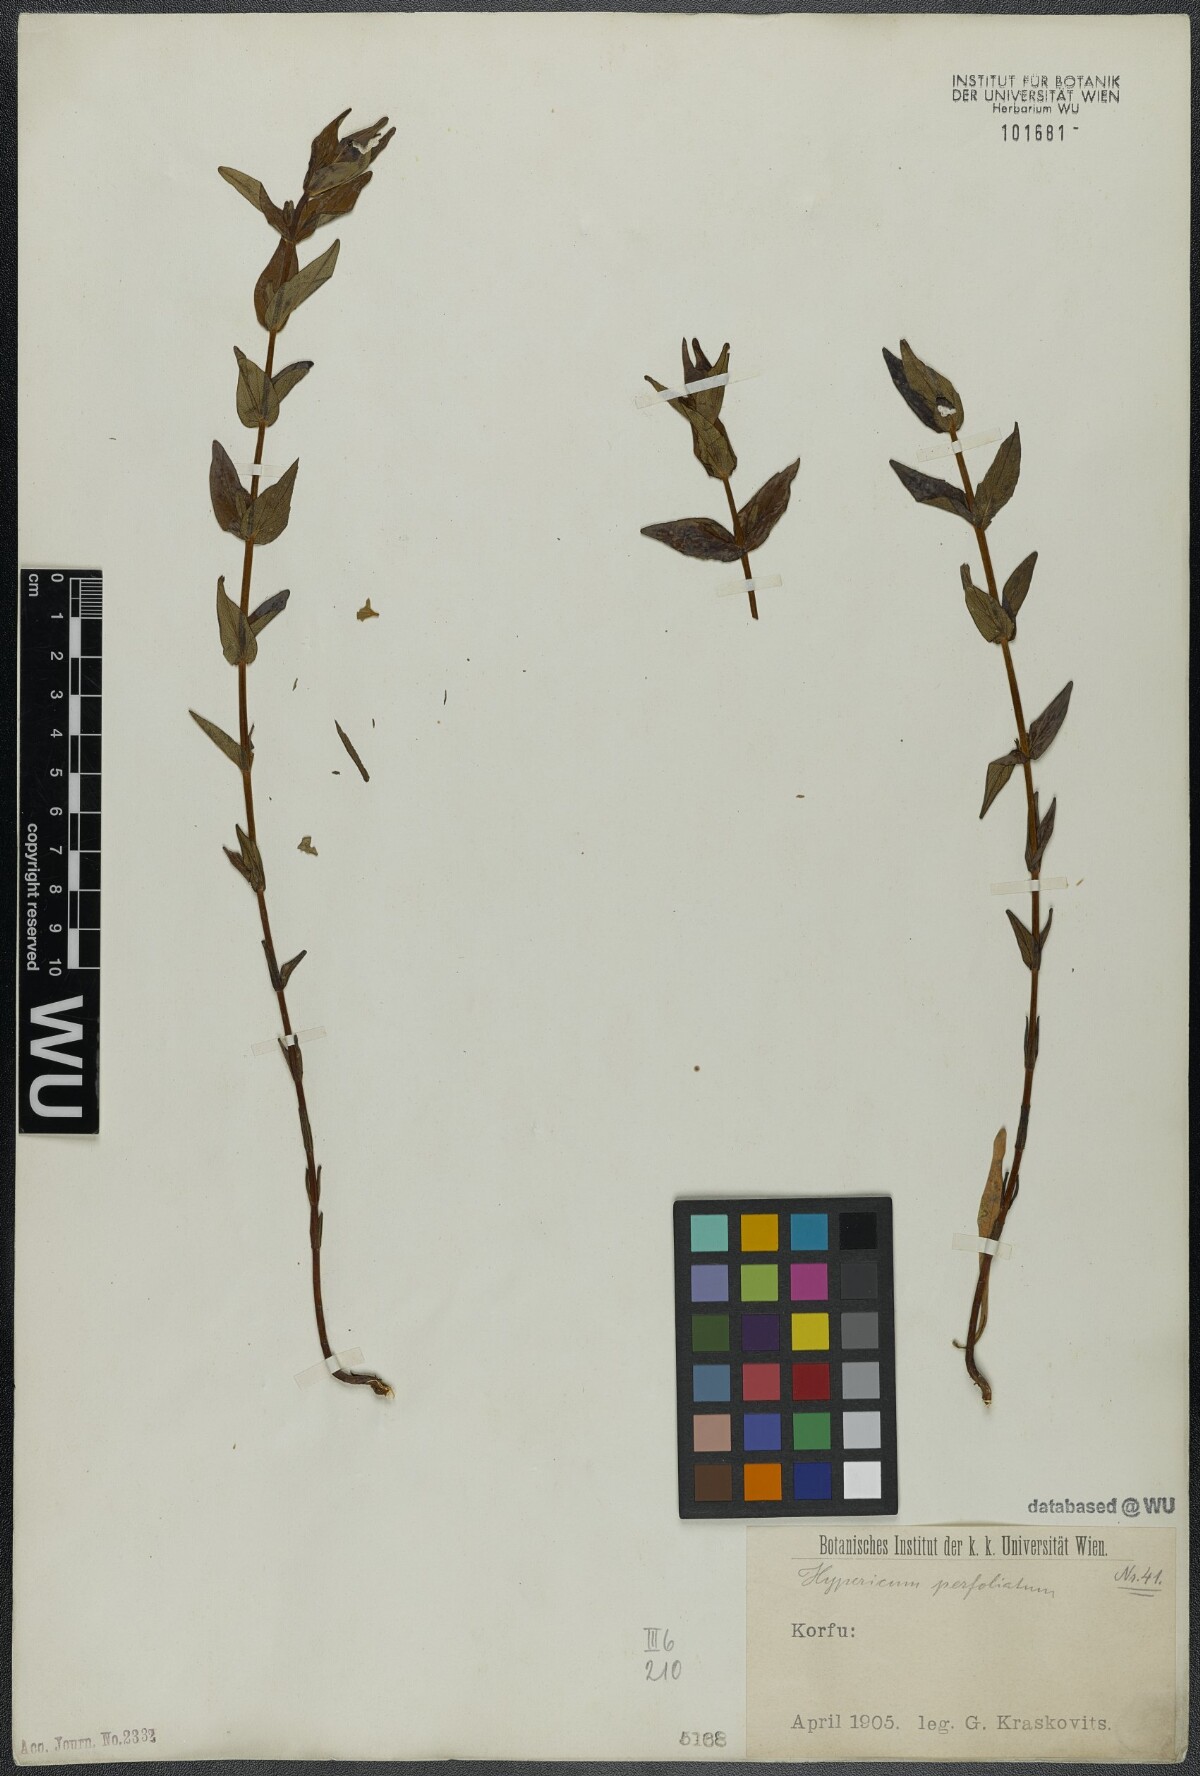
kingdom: Plantae
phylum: Tracheophyta
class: Magnoliopsida
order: Malpighiales
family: Hypericaceae
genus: Hypericum
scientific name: Hypericum perfoliatum
